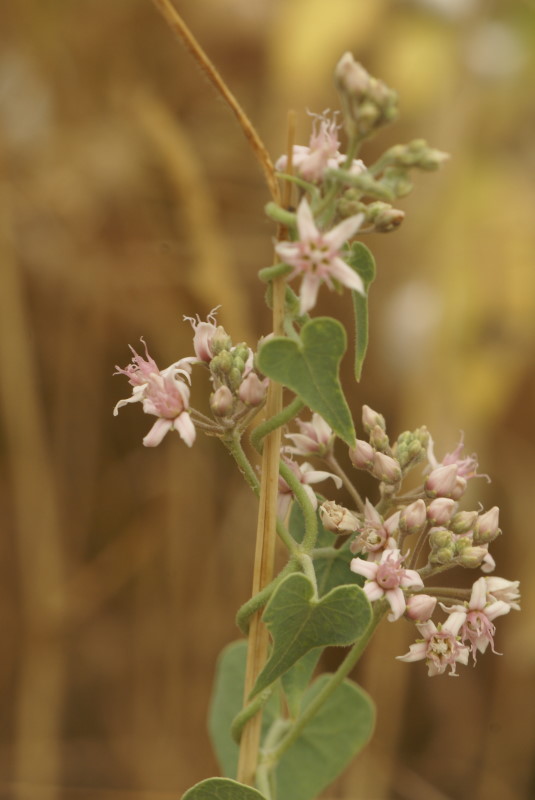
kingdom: Plantae
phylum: Tracheophyta
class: Magnoliopsida
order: Gentianales
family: Apocynaceae
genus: Cynanchum
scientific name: Cynanchum acutum
